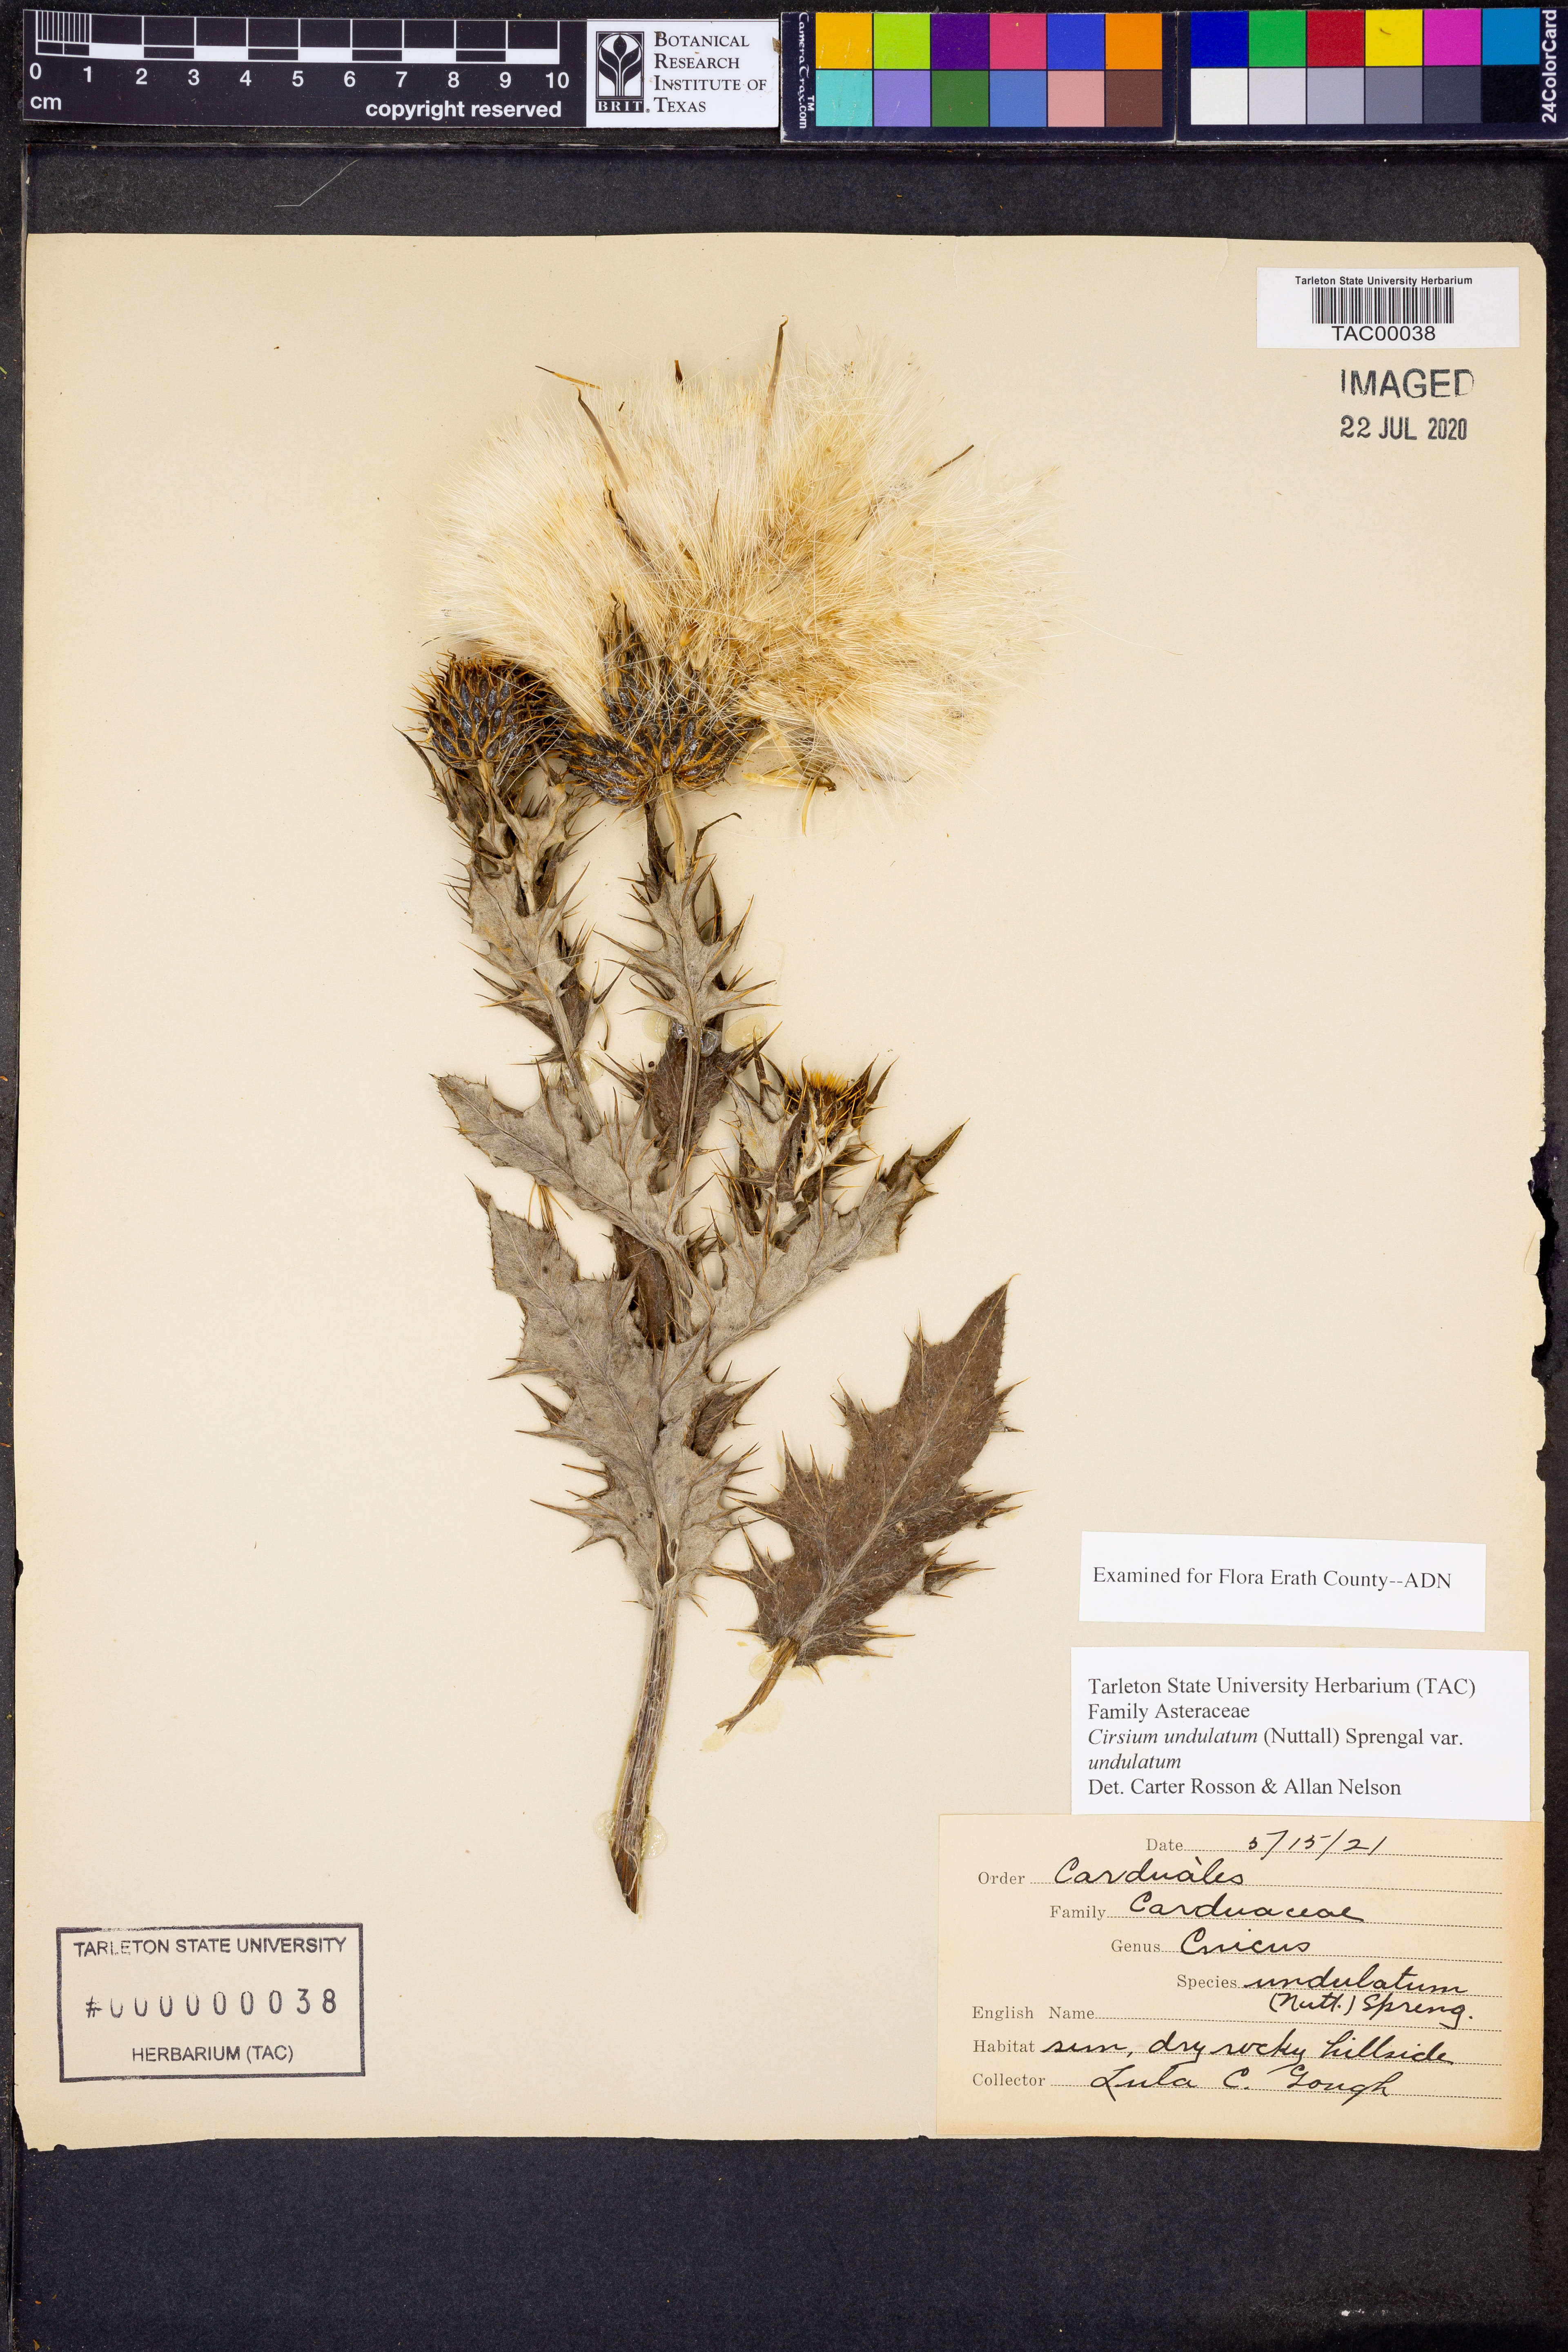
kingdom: Plantae
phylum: Tracheophyta
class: Magnoliopsida
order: Asterales
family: Asteraceae
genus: Cirsium
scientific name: Cirsium undulatum
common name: Pasture thistle
